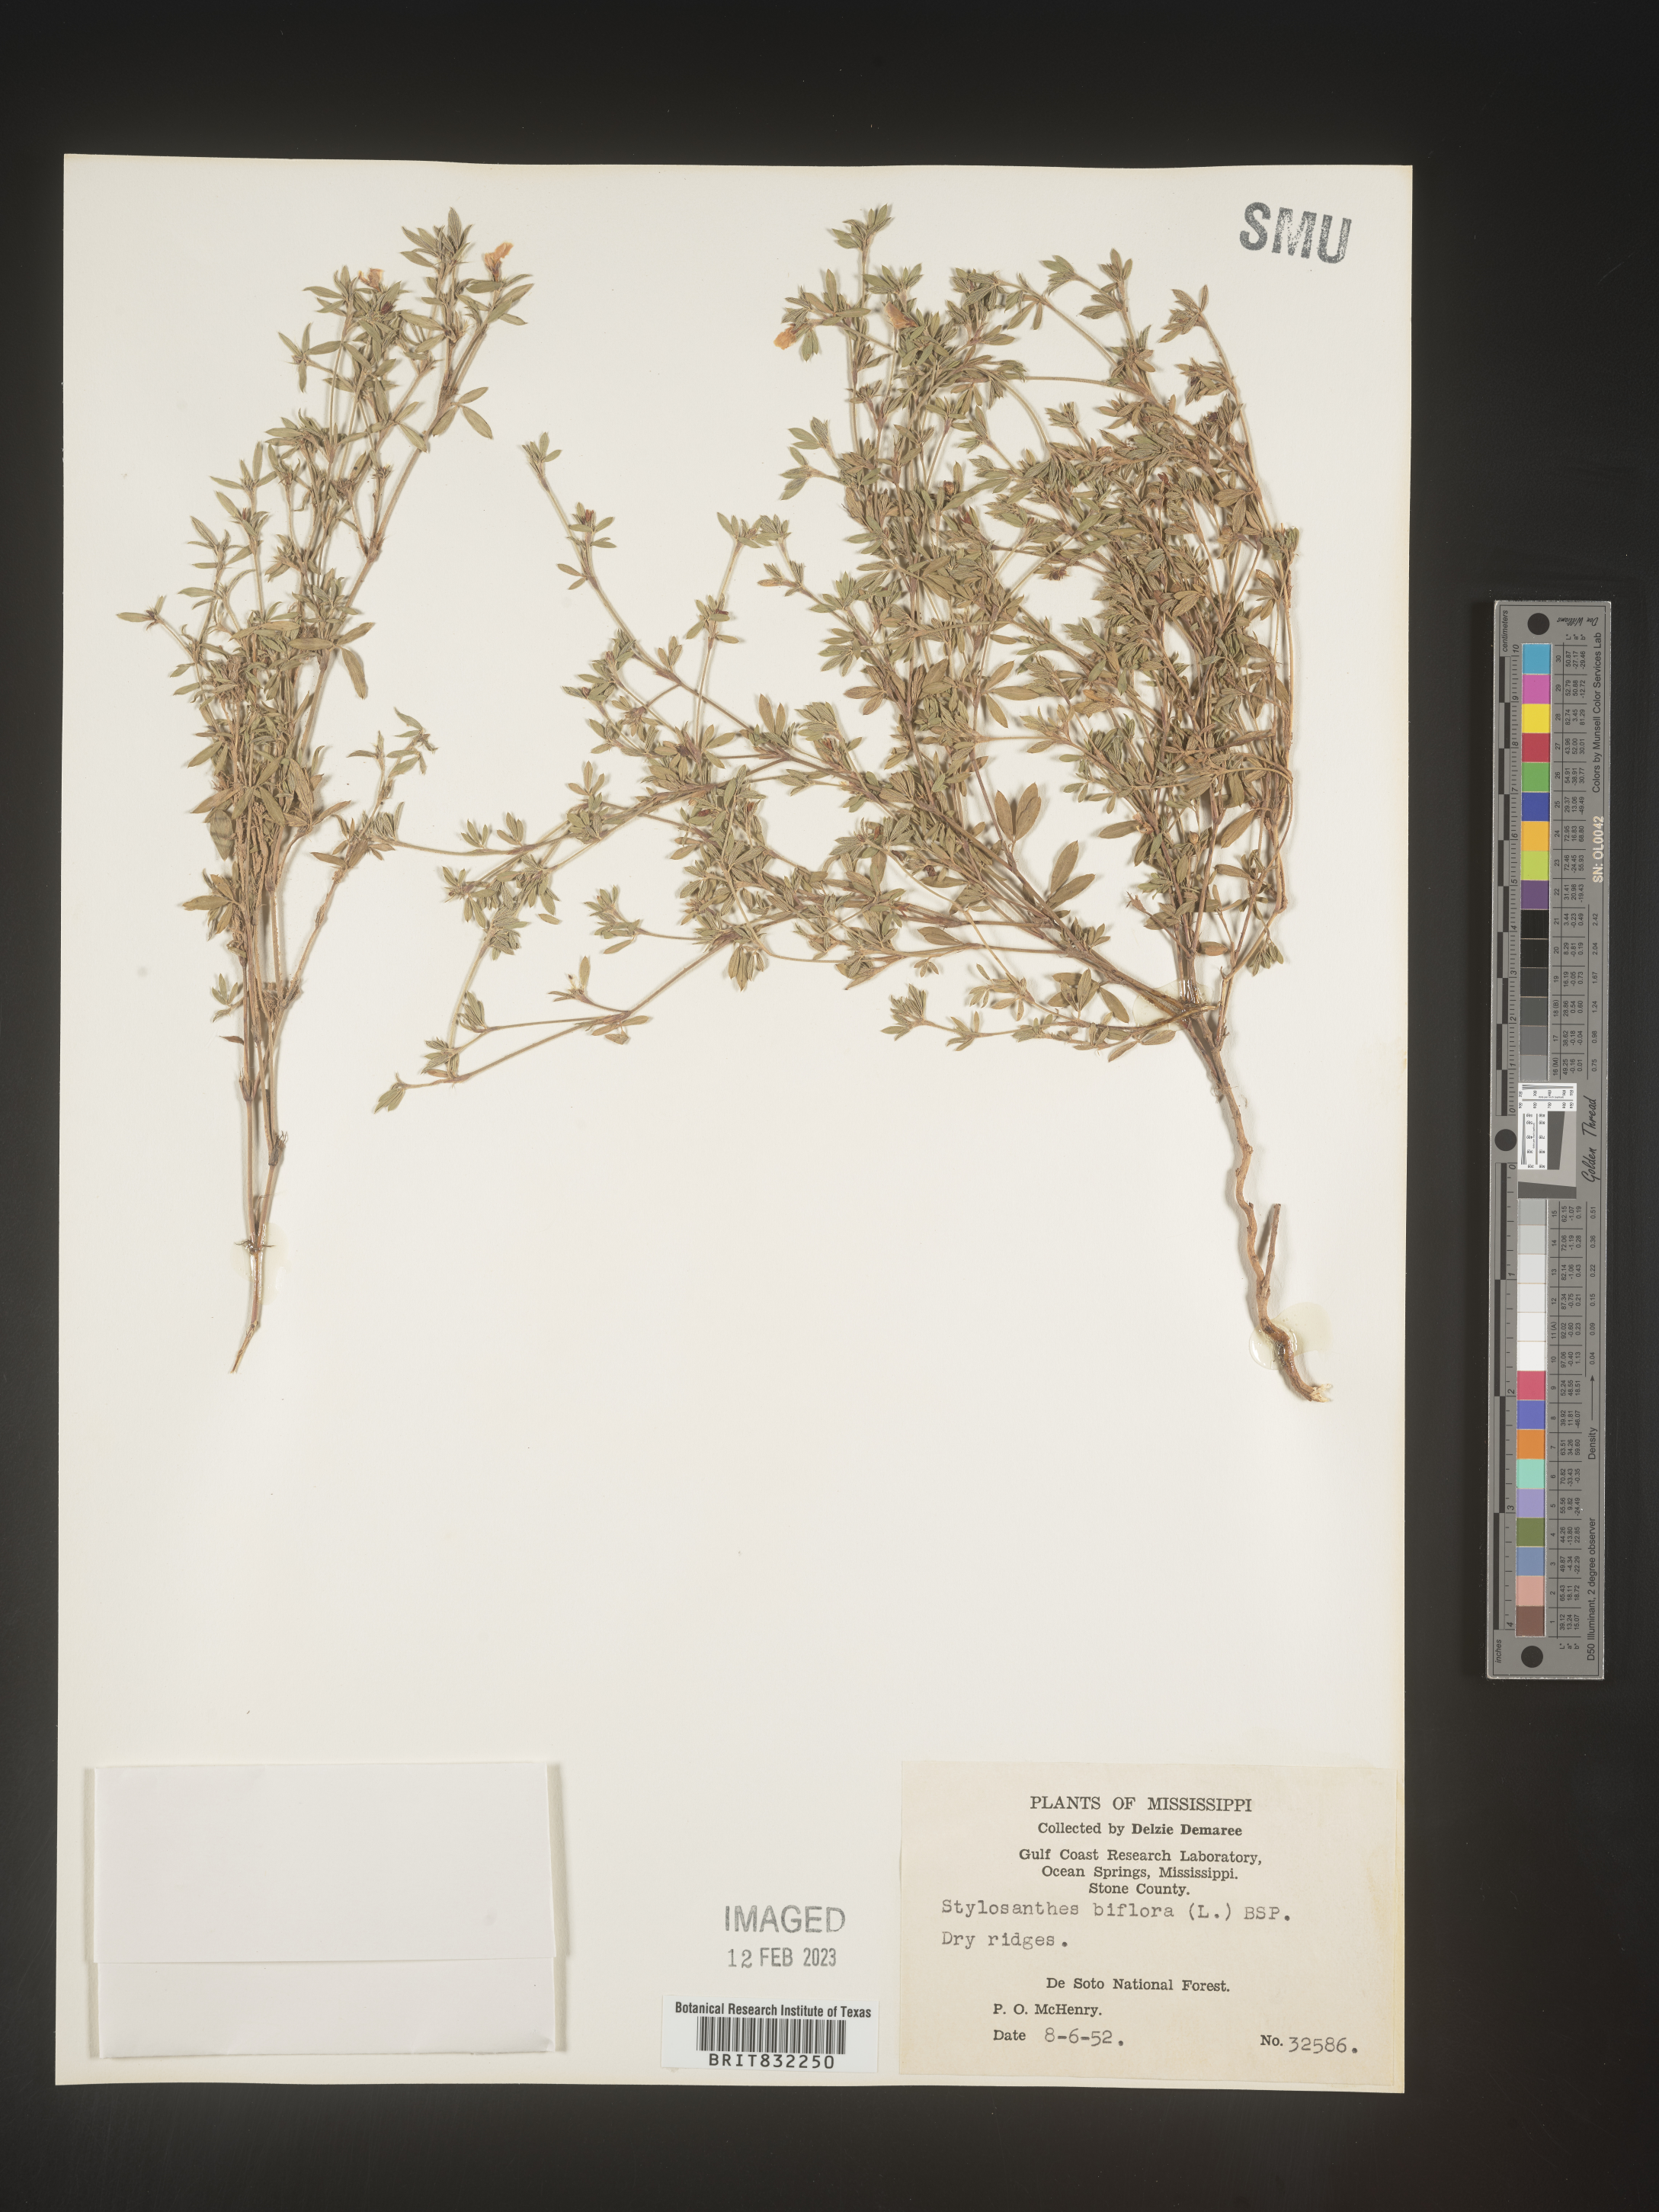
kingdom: Plantae
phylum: Tracheophyta
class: Magnoliopsida
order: Fabales
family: Fabaceae
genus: Stylosanthes
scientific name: Stylosanthes biflora
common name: Two-flower pencil-flower
